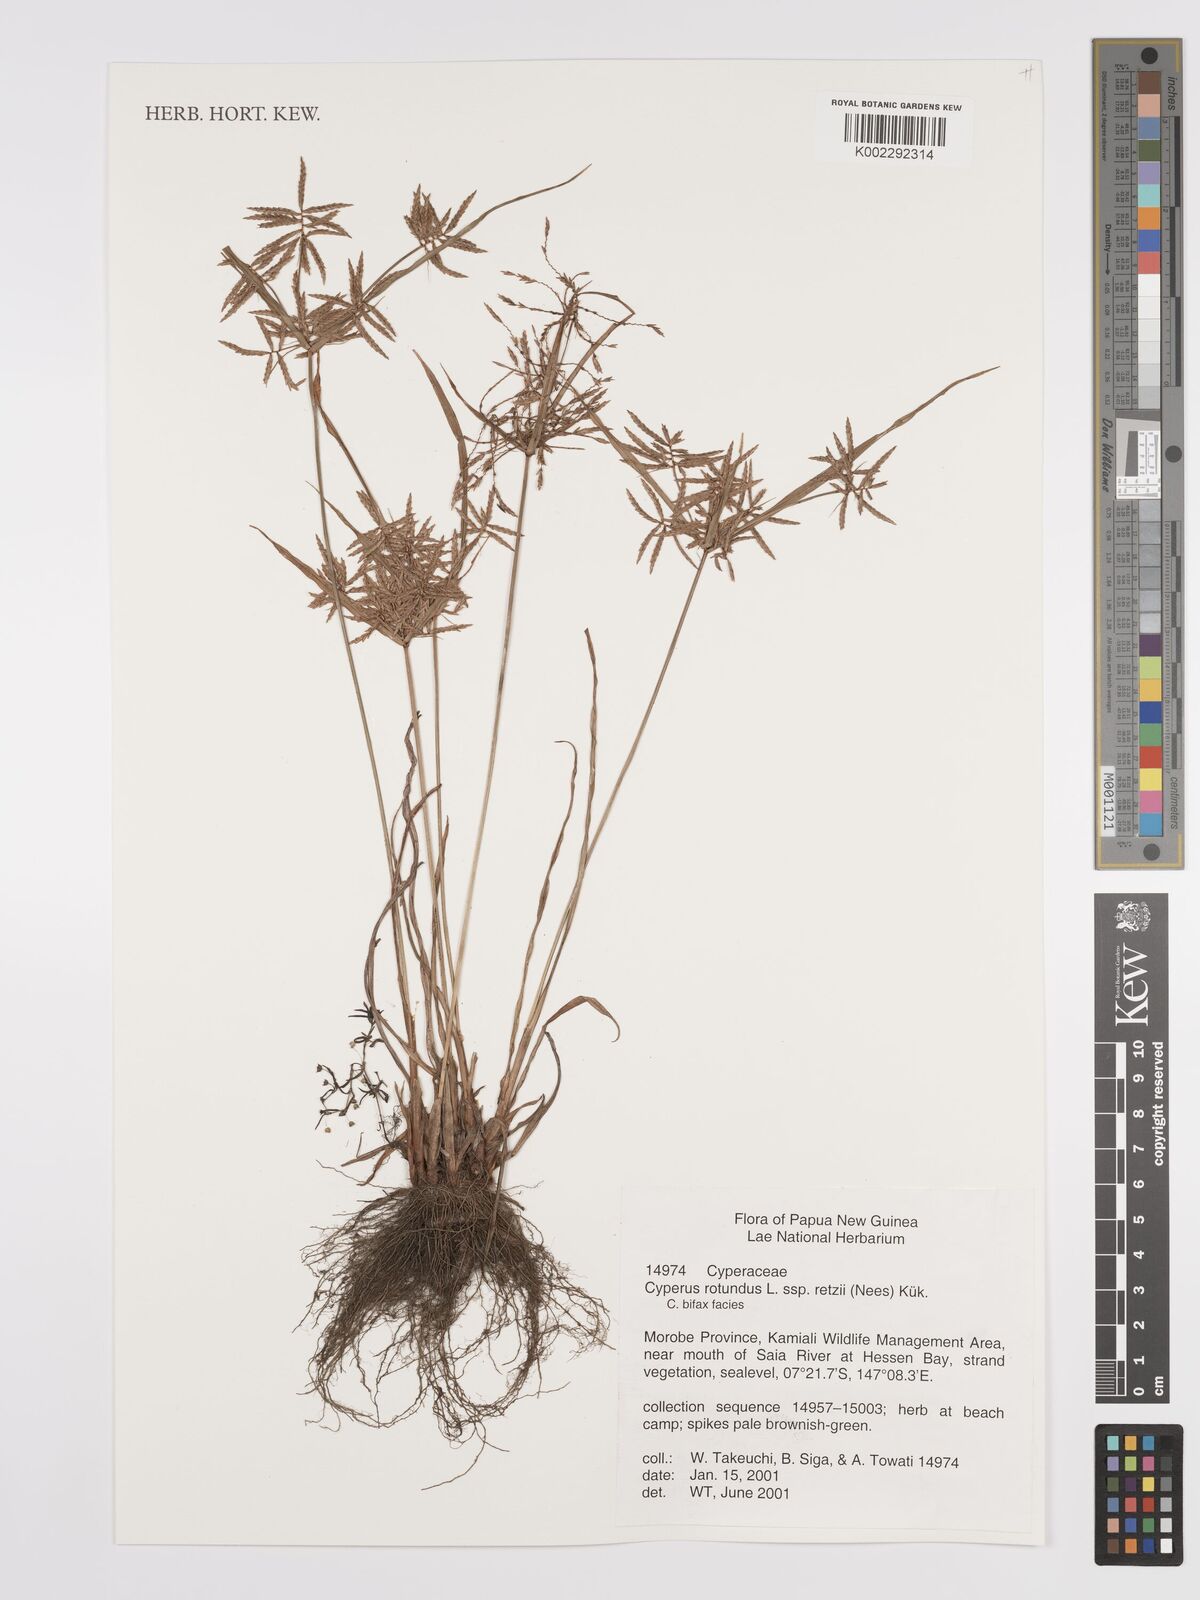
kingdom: Plantae
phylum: Tracheophyta
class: Liliopsida
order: Poales
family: Cyperaceae
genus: Cyperus
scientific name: Cyperus rotundus
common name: Nutgrass
